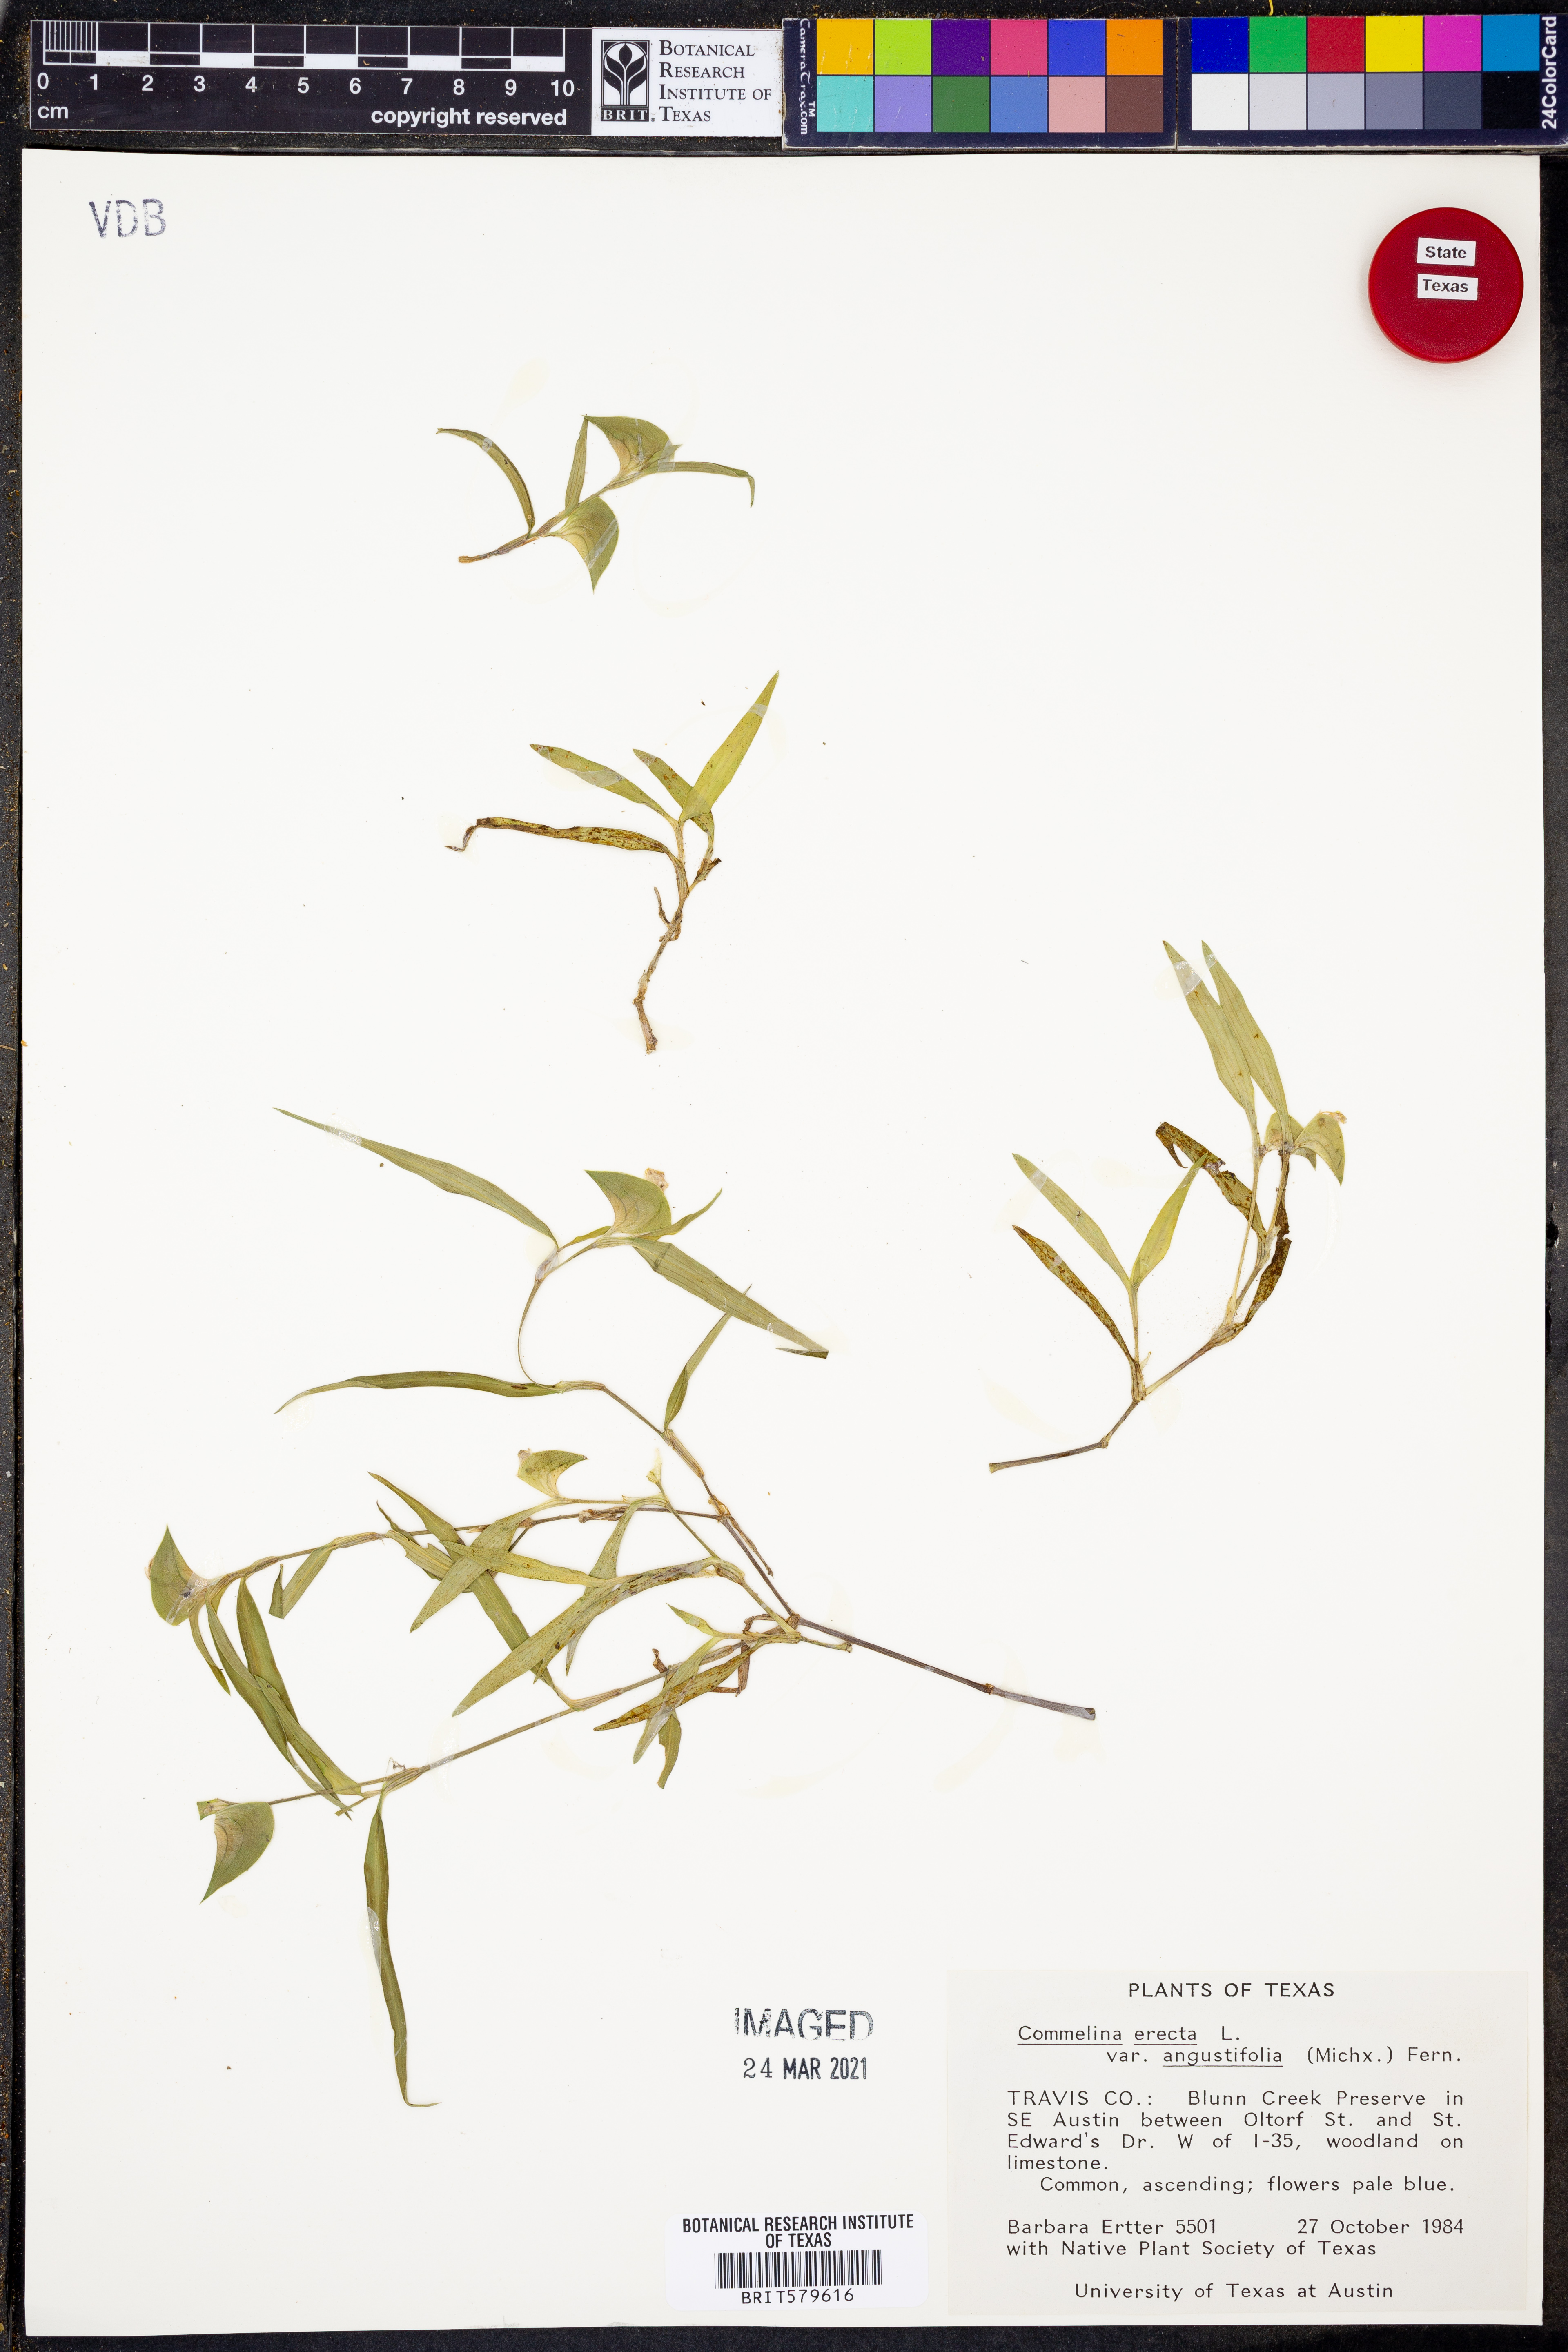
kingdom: Plantae
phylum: Tracheophyta
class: Liliopsida
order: Commelinales
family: Commelinaceae
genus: Commelina
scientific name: Commelina erecta
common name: Blousel blommetjie
